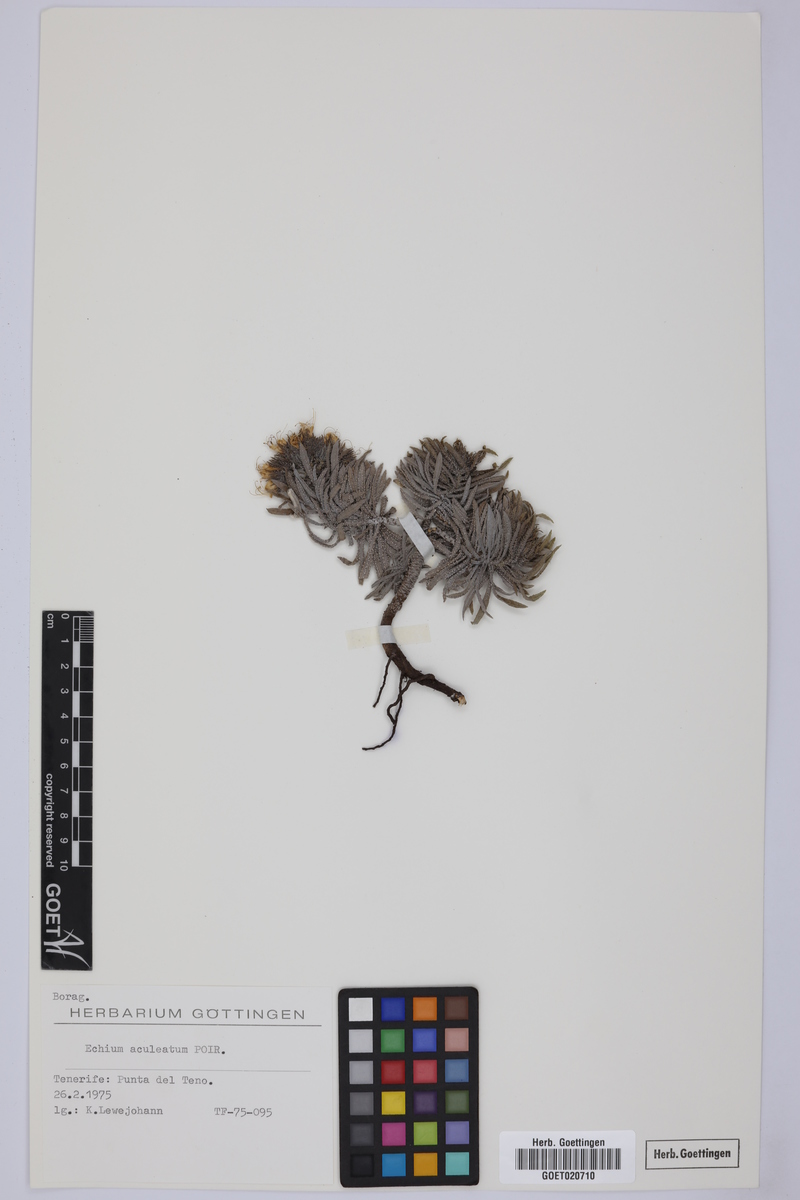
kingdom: Plantae
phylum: Tracheophyta
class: Magnoliopsida
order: Boraginales
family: Boraginaceae
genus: Echium
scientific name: Echium aculeatum
